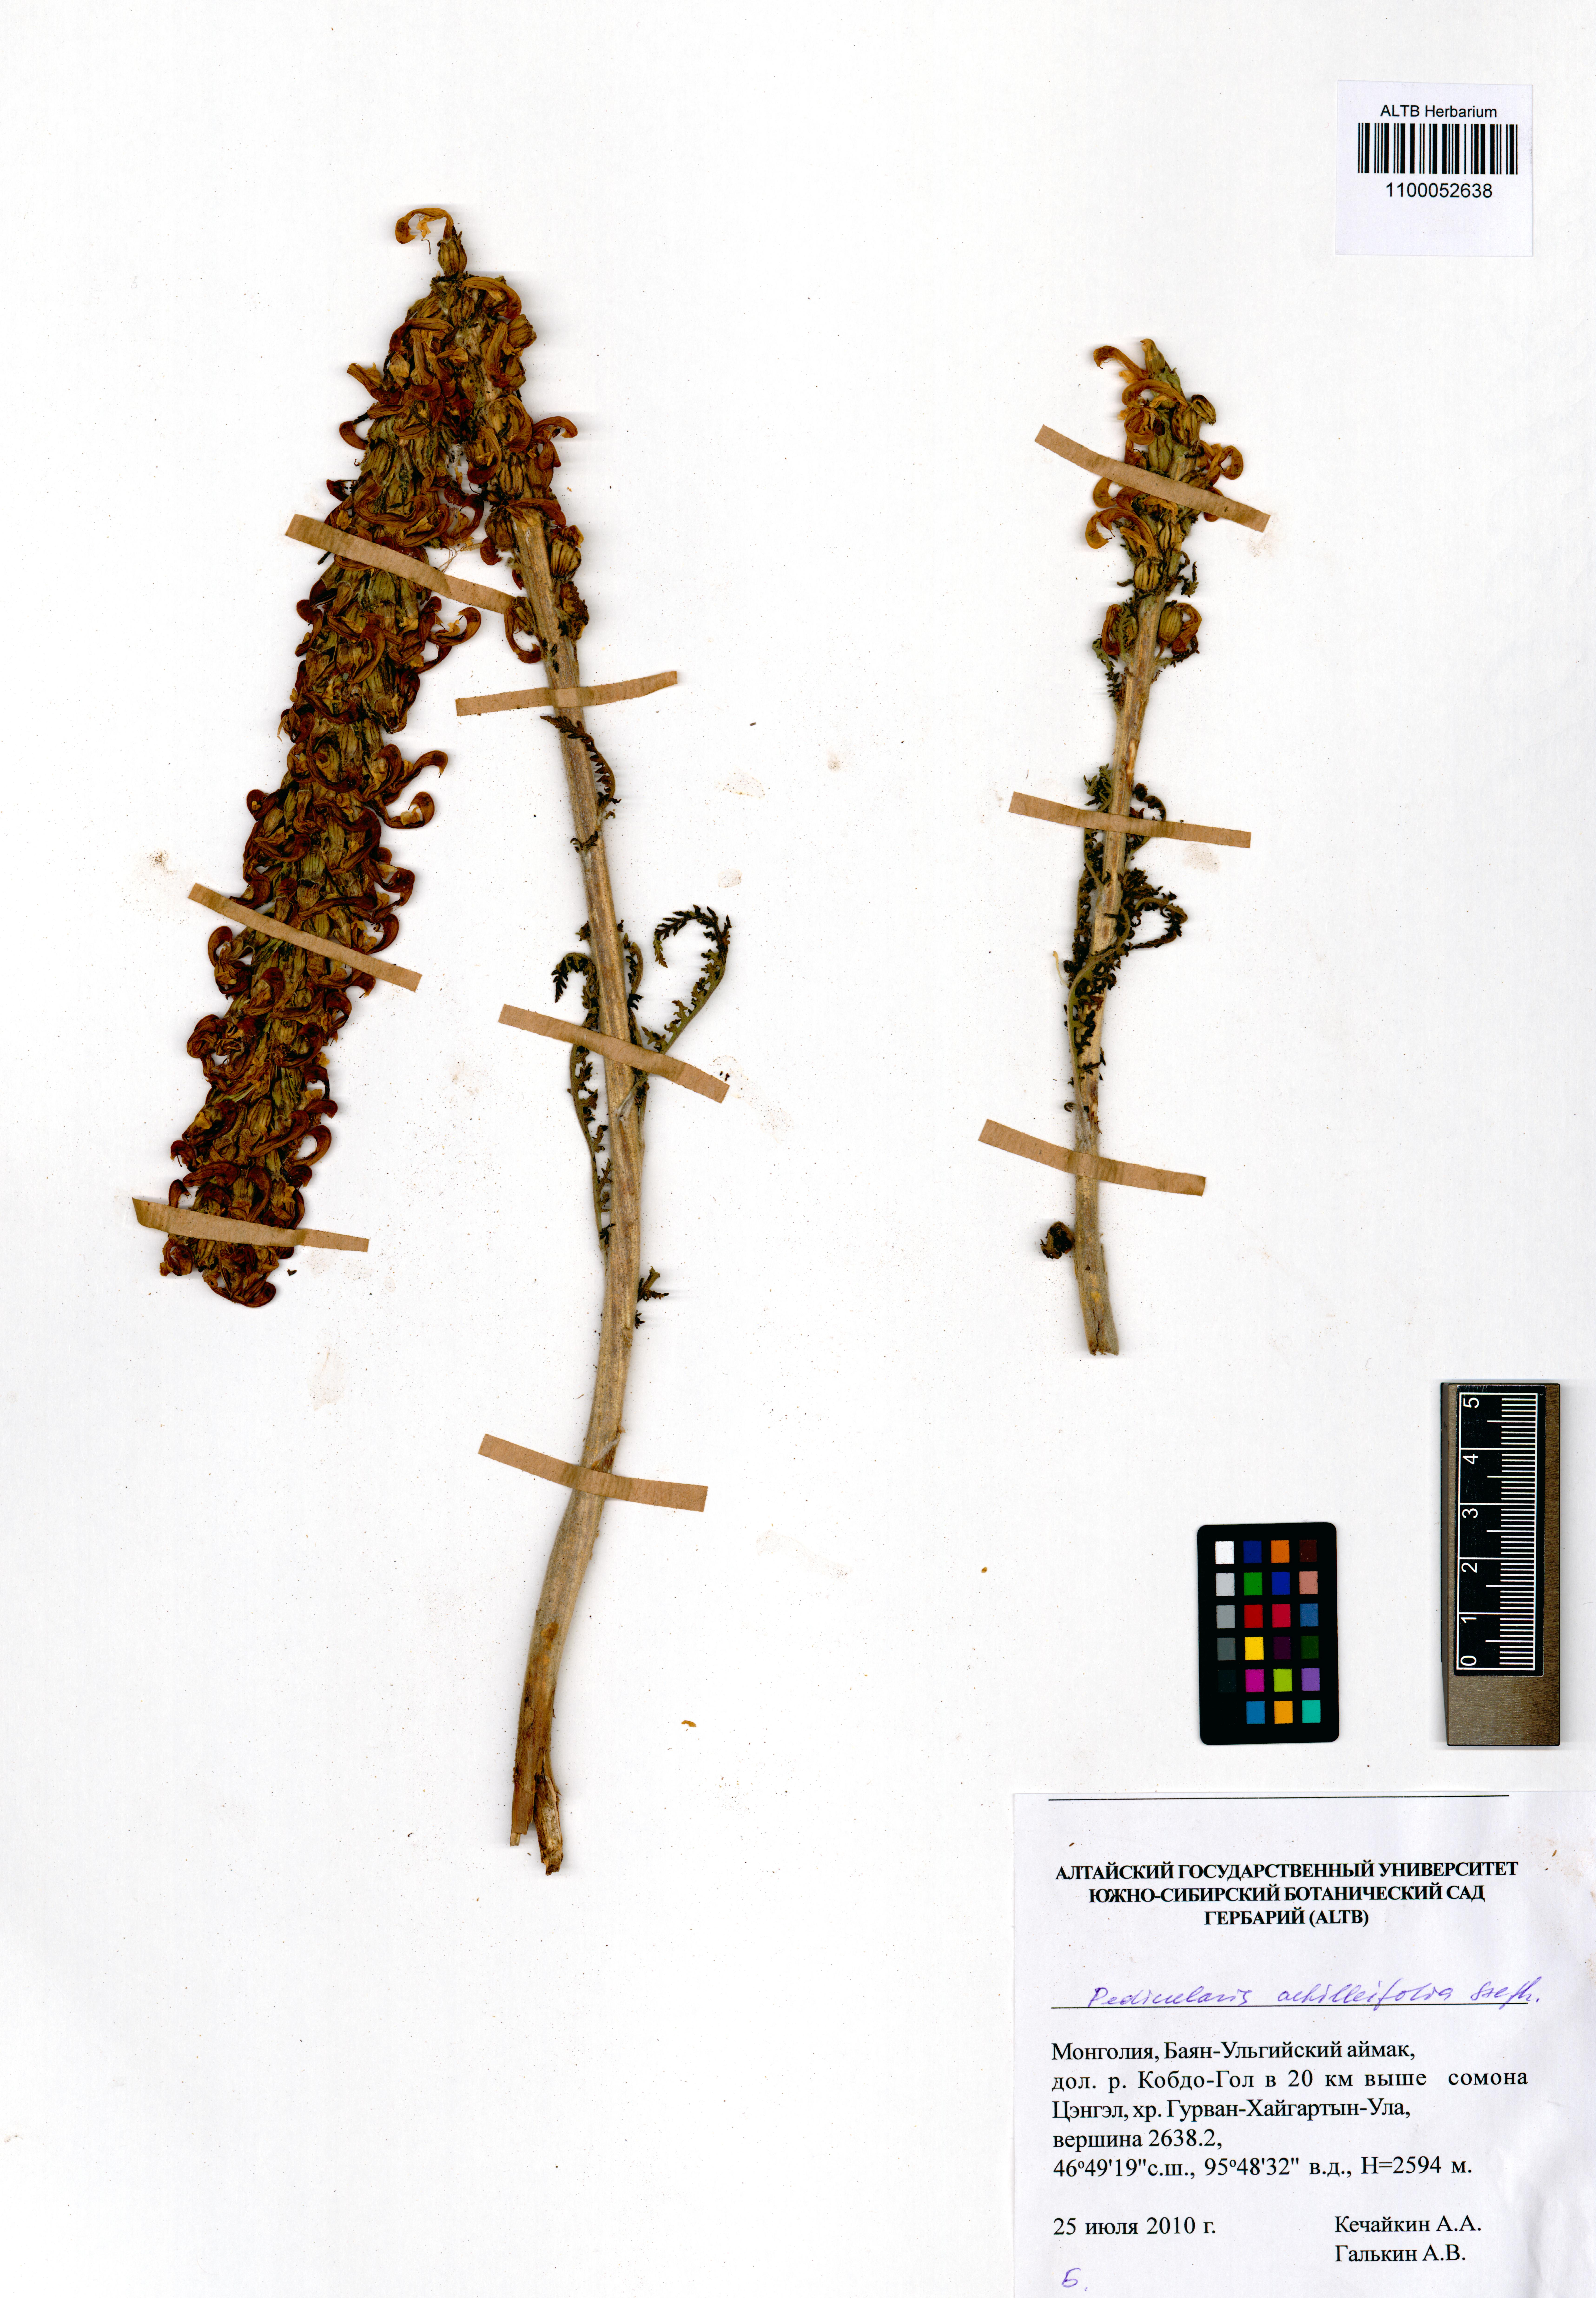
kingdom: Plantae
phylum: Tracheophyta
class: Magnoliopsida
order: Lamiales
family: Orobanchaceae
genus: Pedicularis
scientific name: Pedicularis achilleifolia
